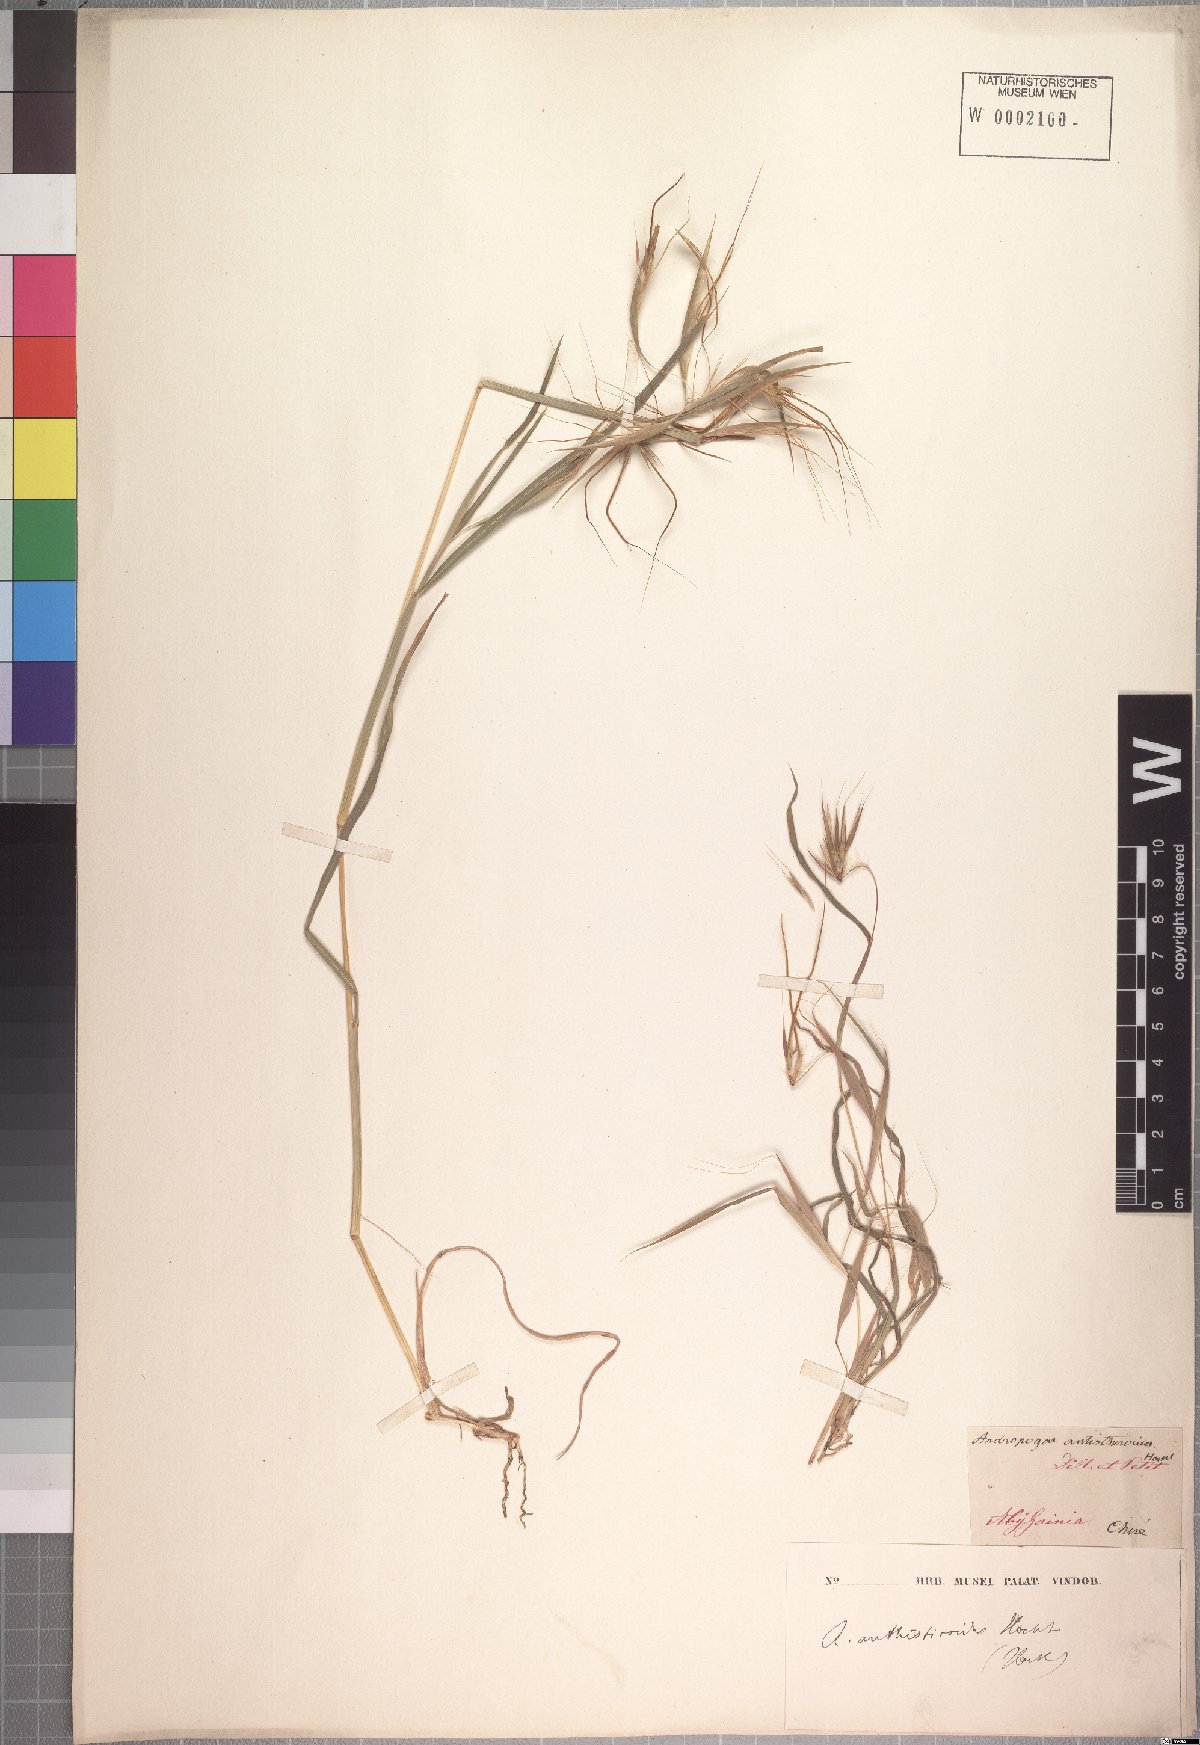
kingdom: Plantae
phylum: Tracheophyta
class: Liliopsida
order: Poales
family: Poaceae
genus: Hyparrhenia
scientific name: Hyparrhenia anthistirioides
